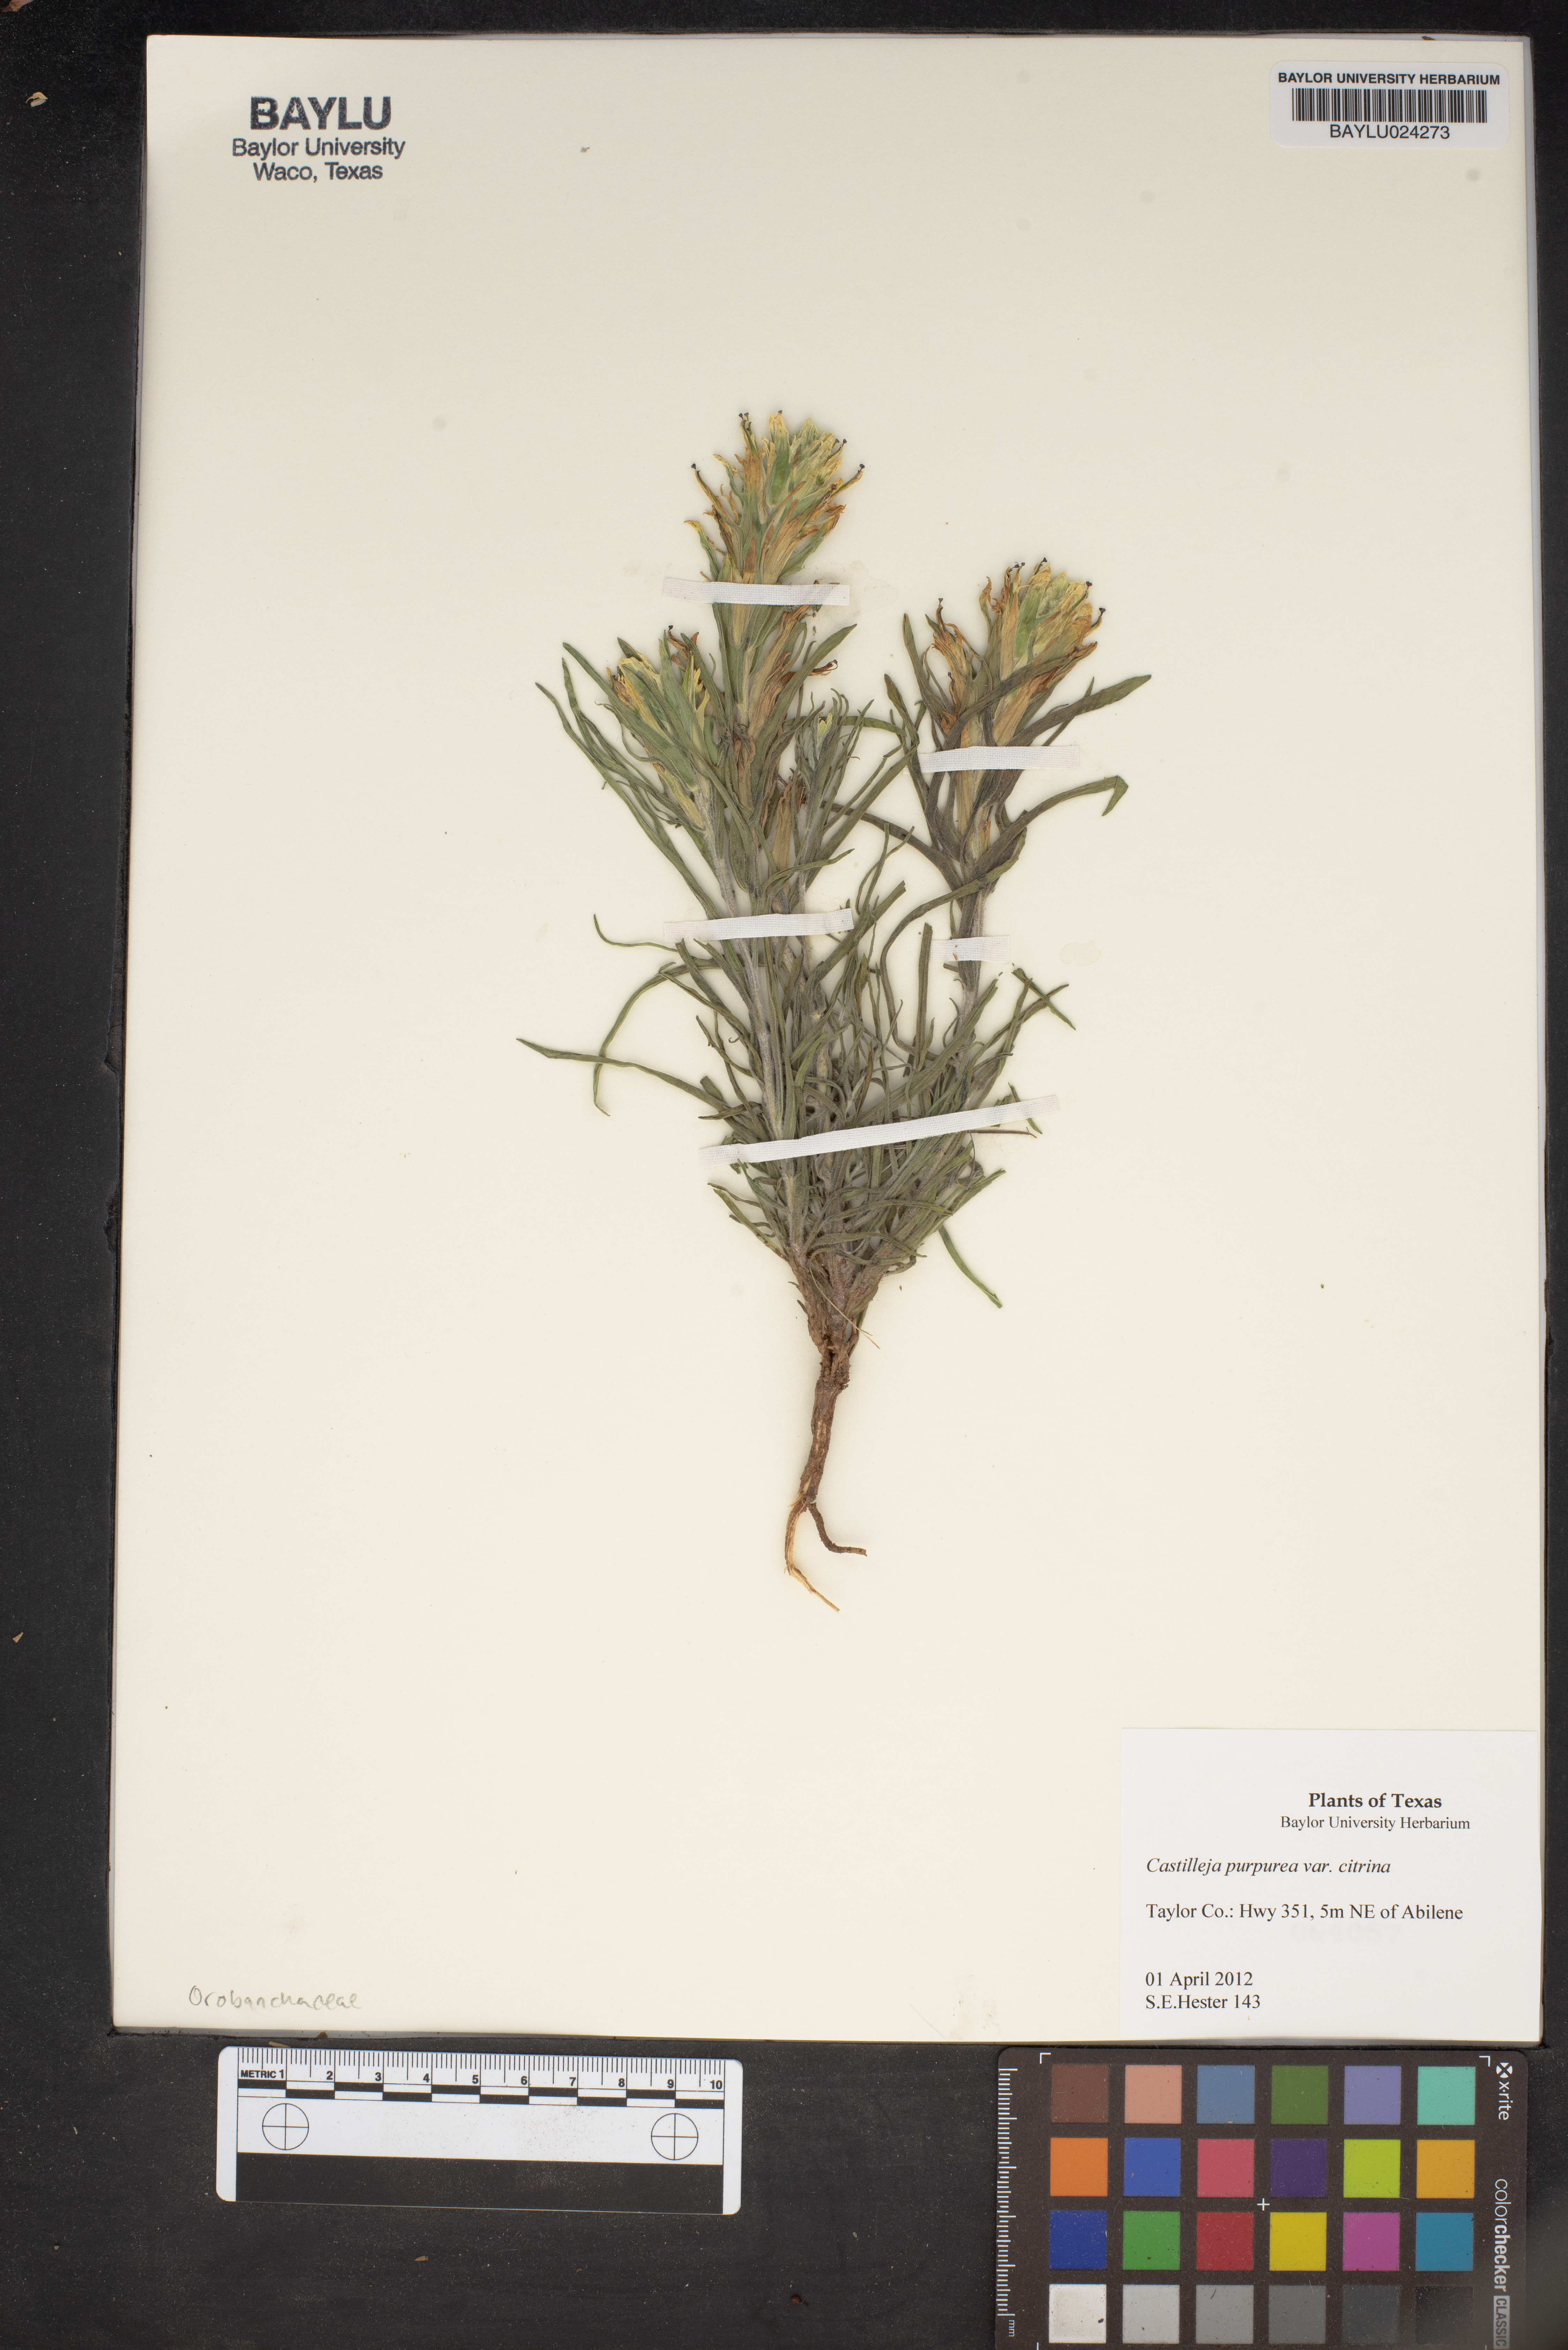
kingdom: Plantae
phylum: Tracheophyta
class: Magnoliopsida
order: Lamiales
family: Orobanchaceae
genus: Castilleja
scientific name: Castilleja purpurea
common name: Plains paintbrush
